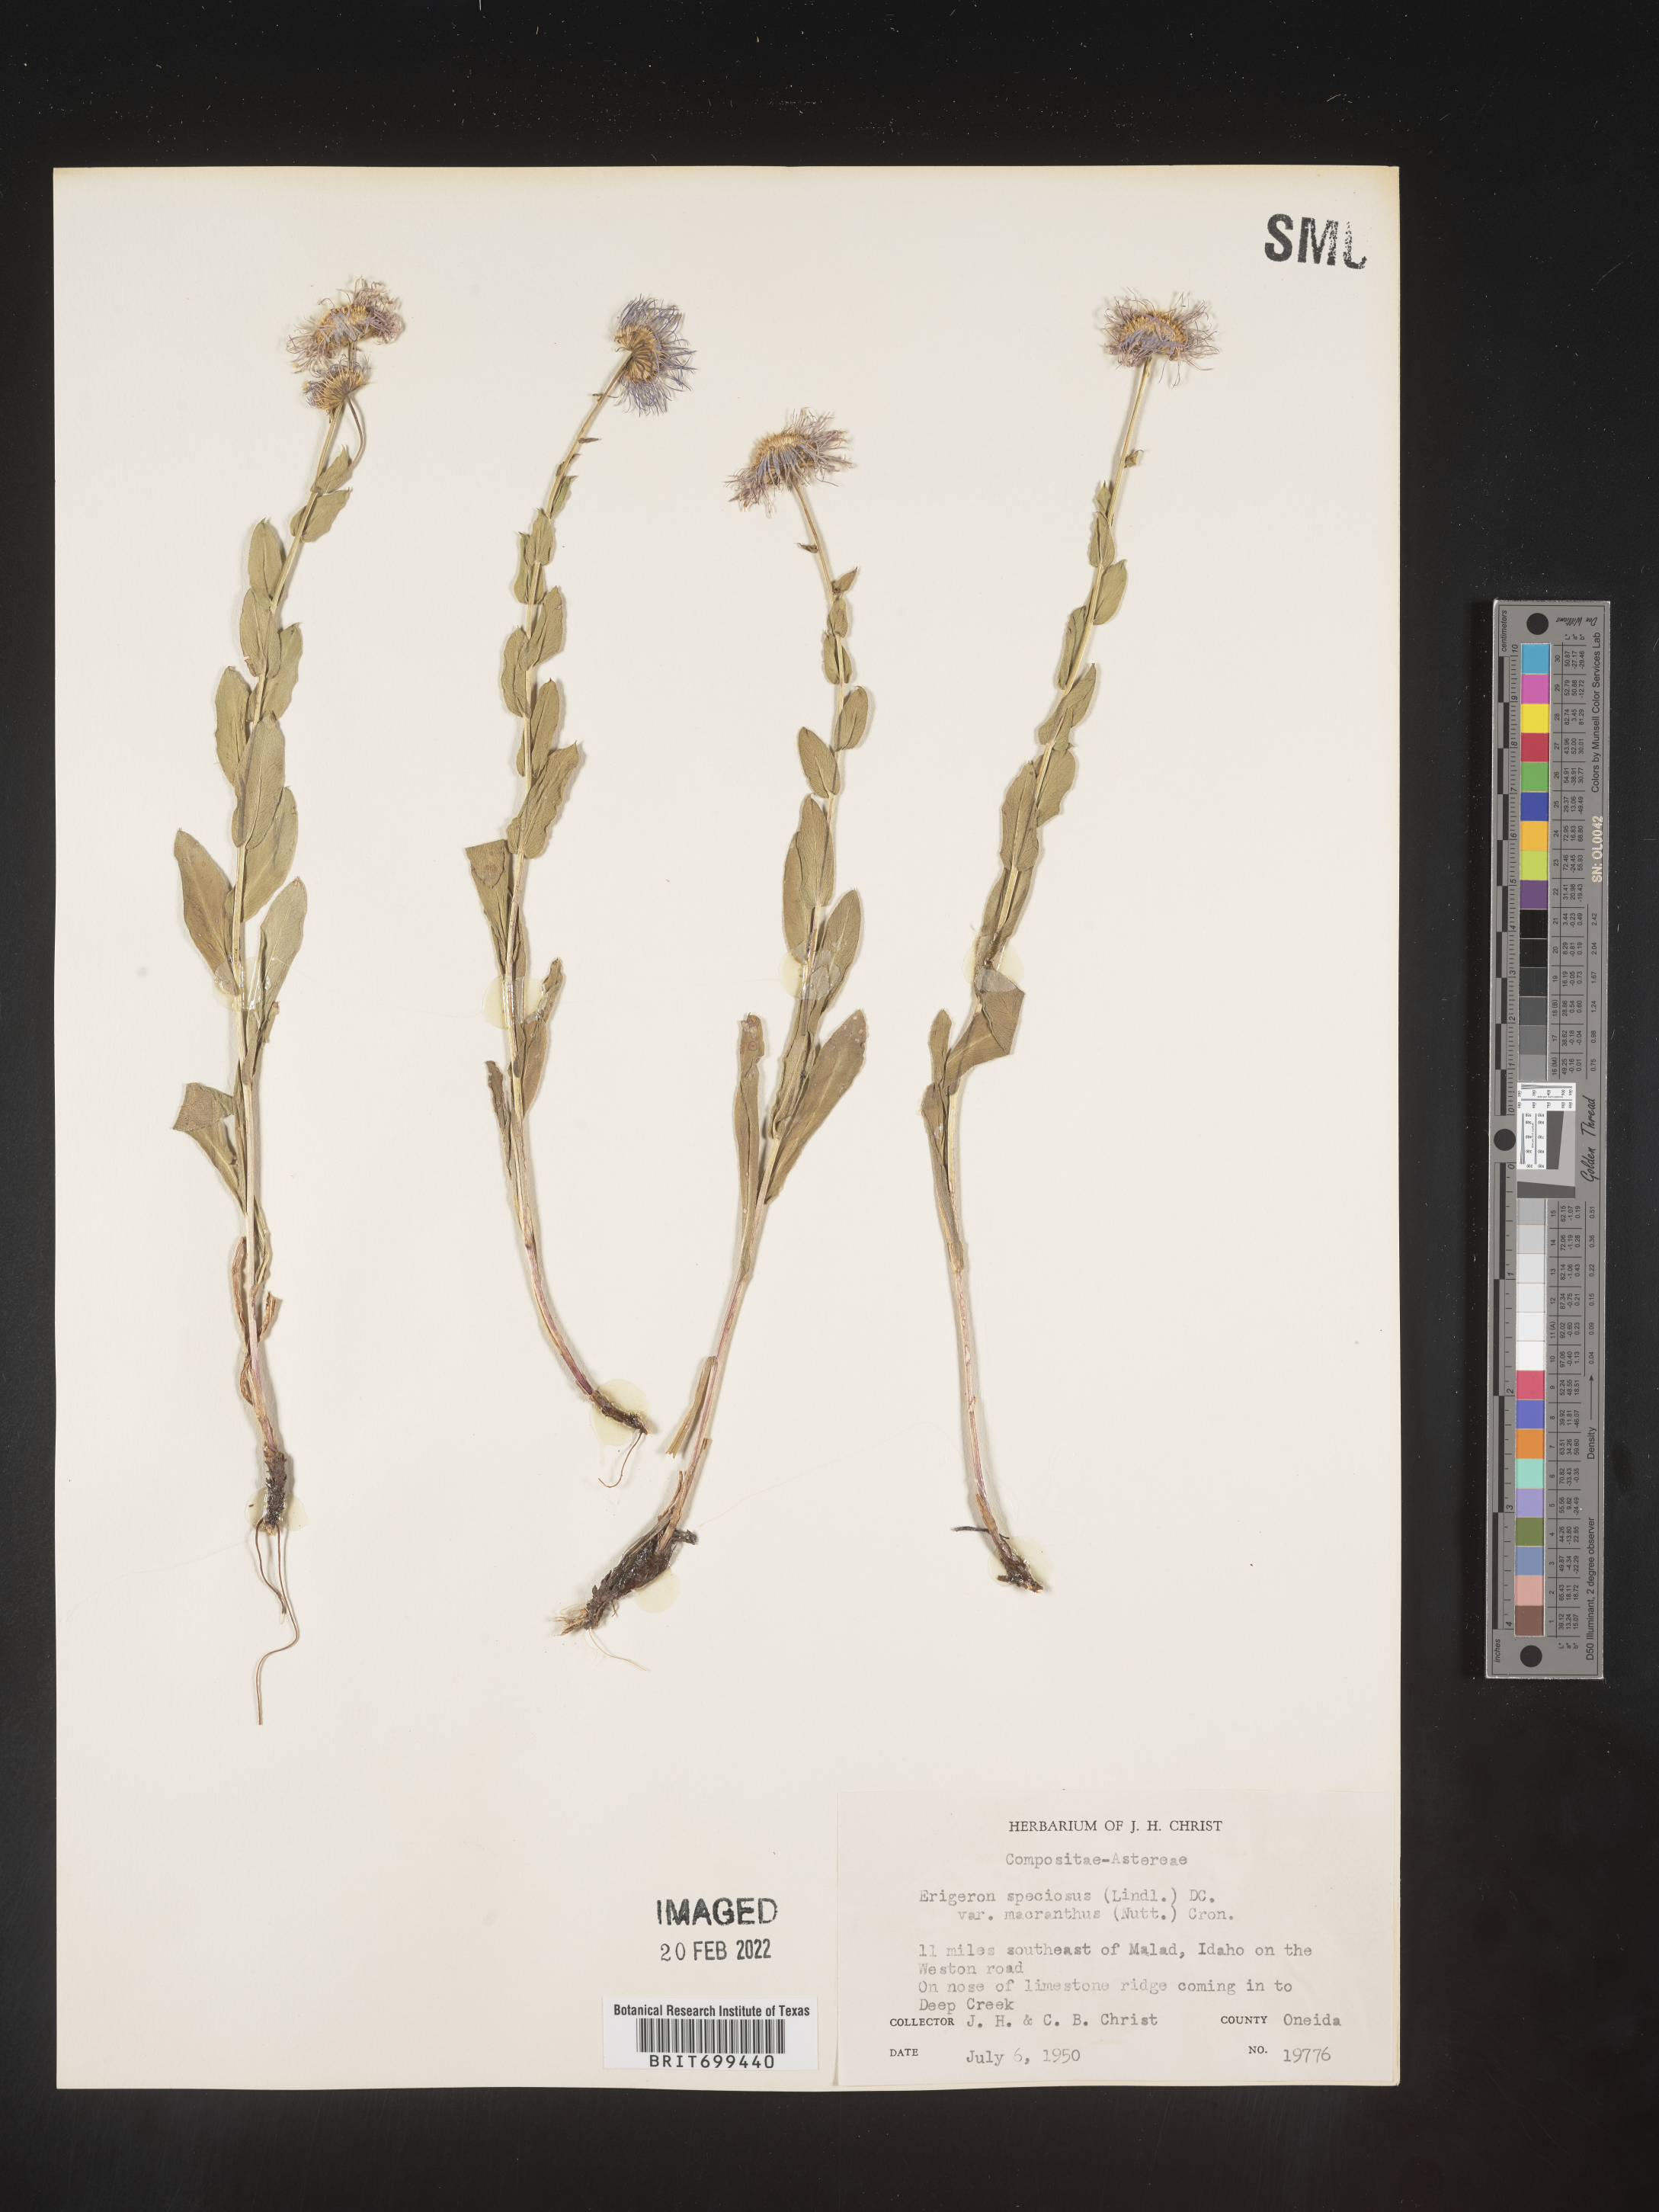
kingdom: Plantae
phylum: Tracheophyta
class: Magnoliopsida
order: Asterales
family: Asteraceae
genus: Erigeron
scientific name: Erigeron speciosus
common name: Aspen fleabane
